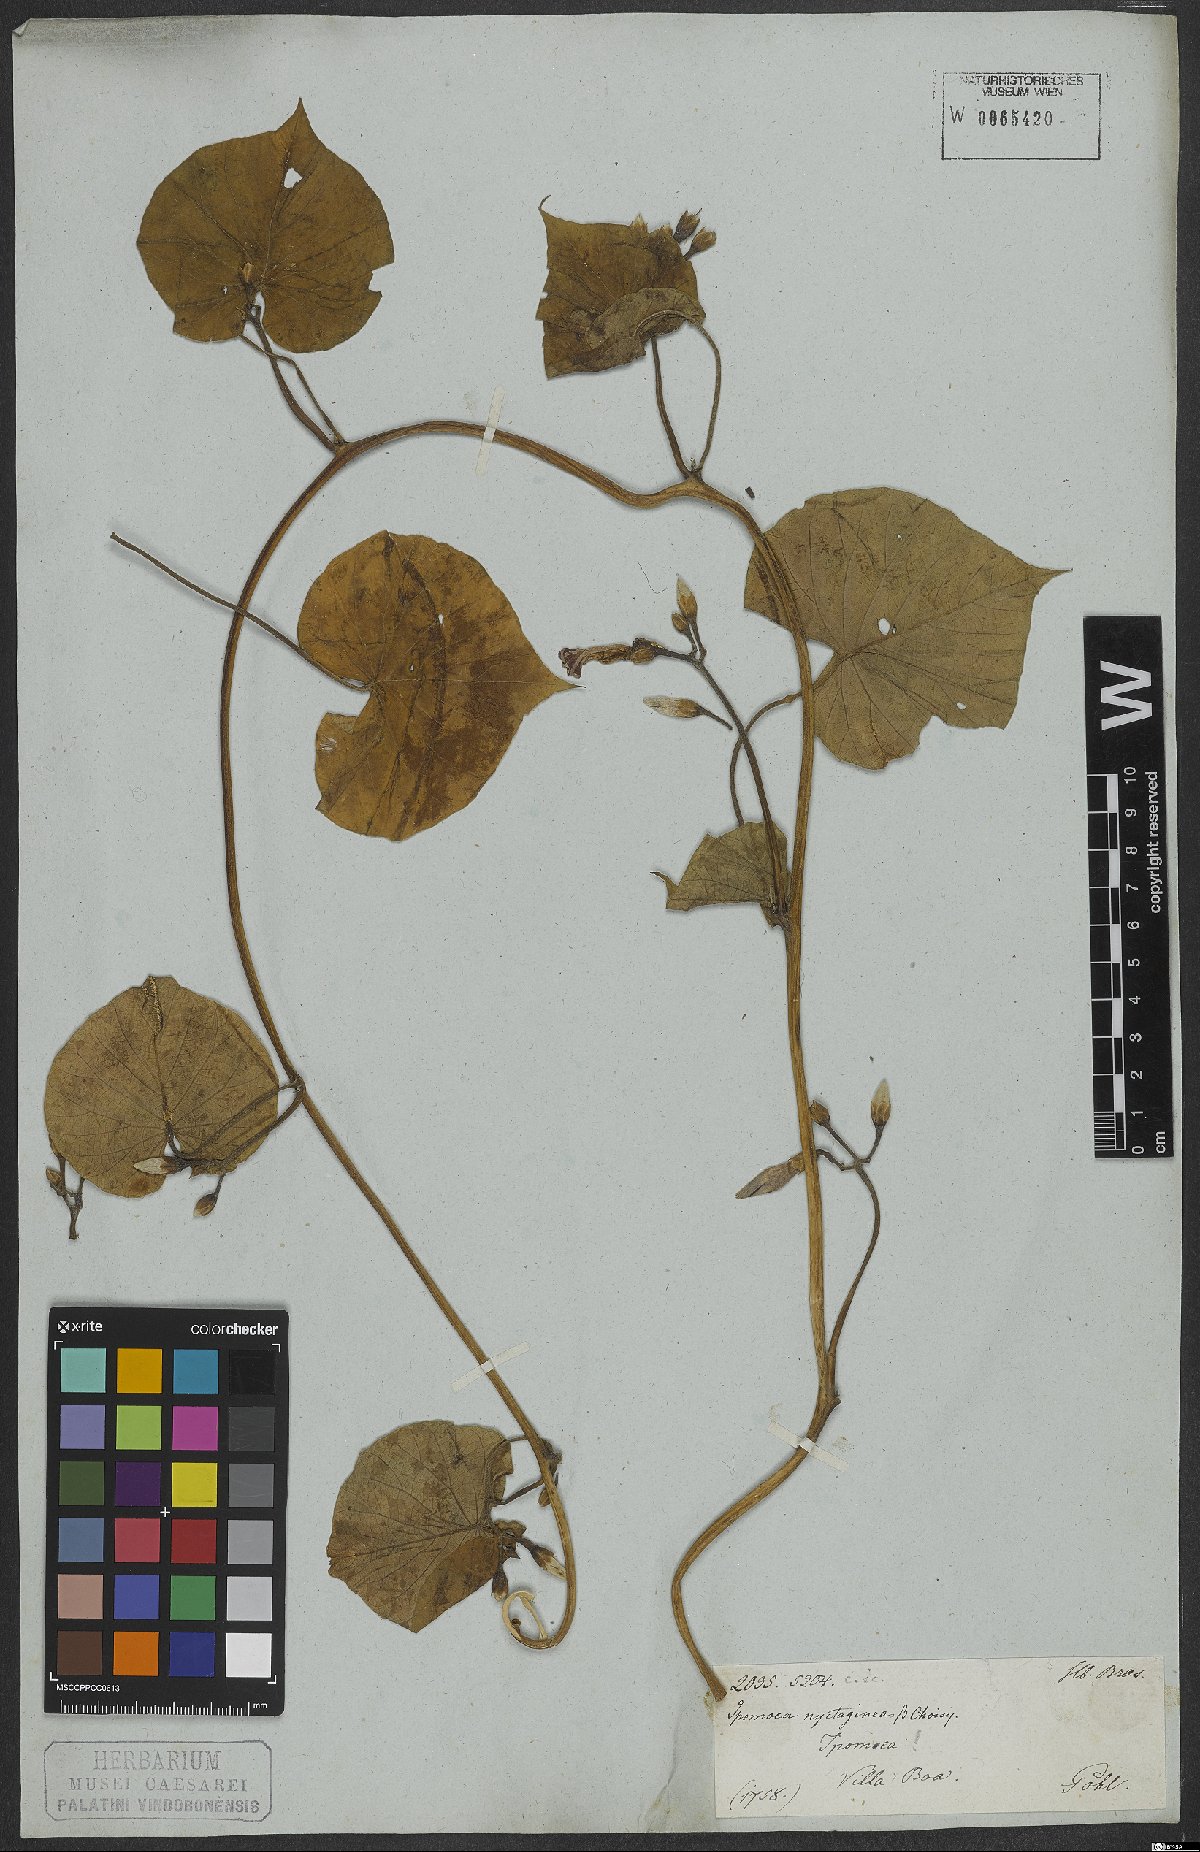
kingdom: Plantae
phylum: Tracheophyta
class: Magnoliopsida
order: Solanales
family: Convolvulaceae
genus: Ipomoea
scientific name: Ipomoea nyctaginea
